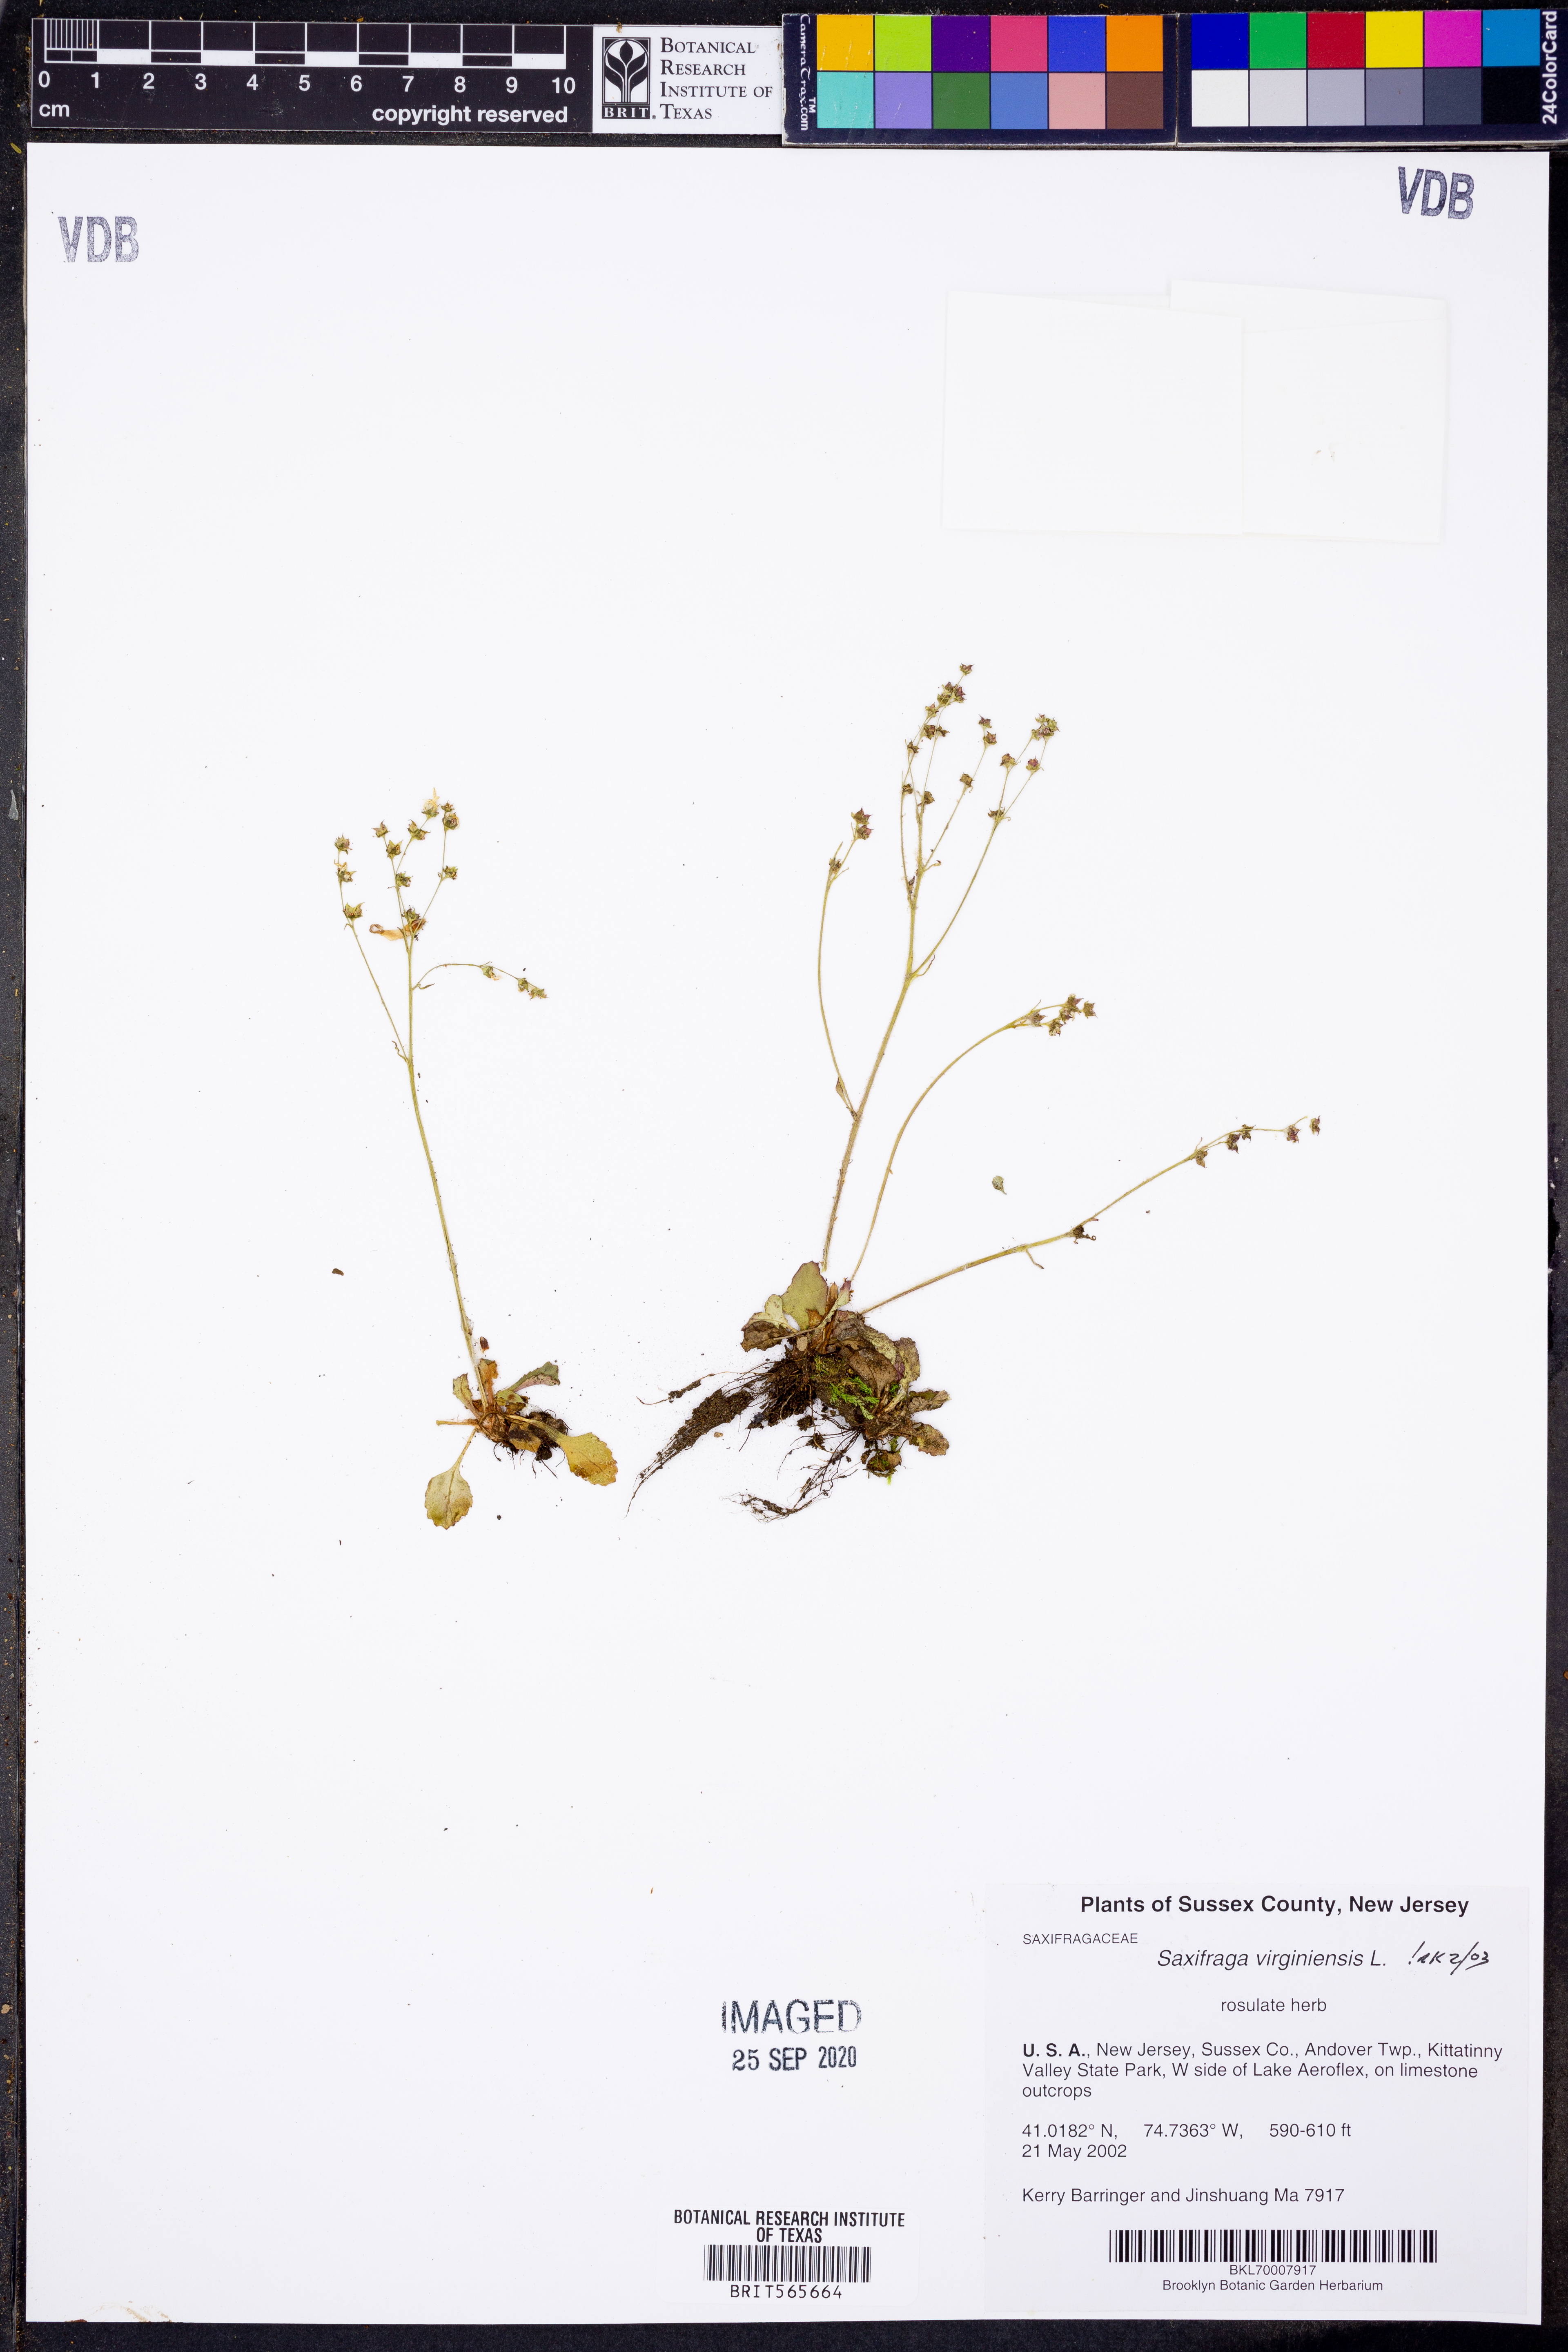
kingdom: Plantae
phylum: Tracheophyta
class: Magnoliopsida
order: Saxifragales
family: Saxifragaceae
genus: Micranthes
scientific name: Micranthes virginiensis
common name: Early saxifrage
